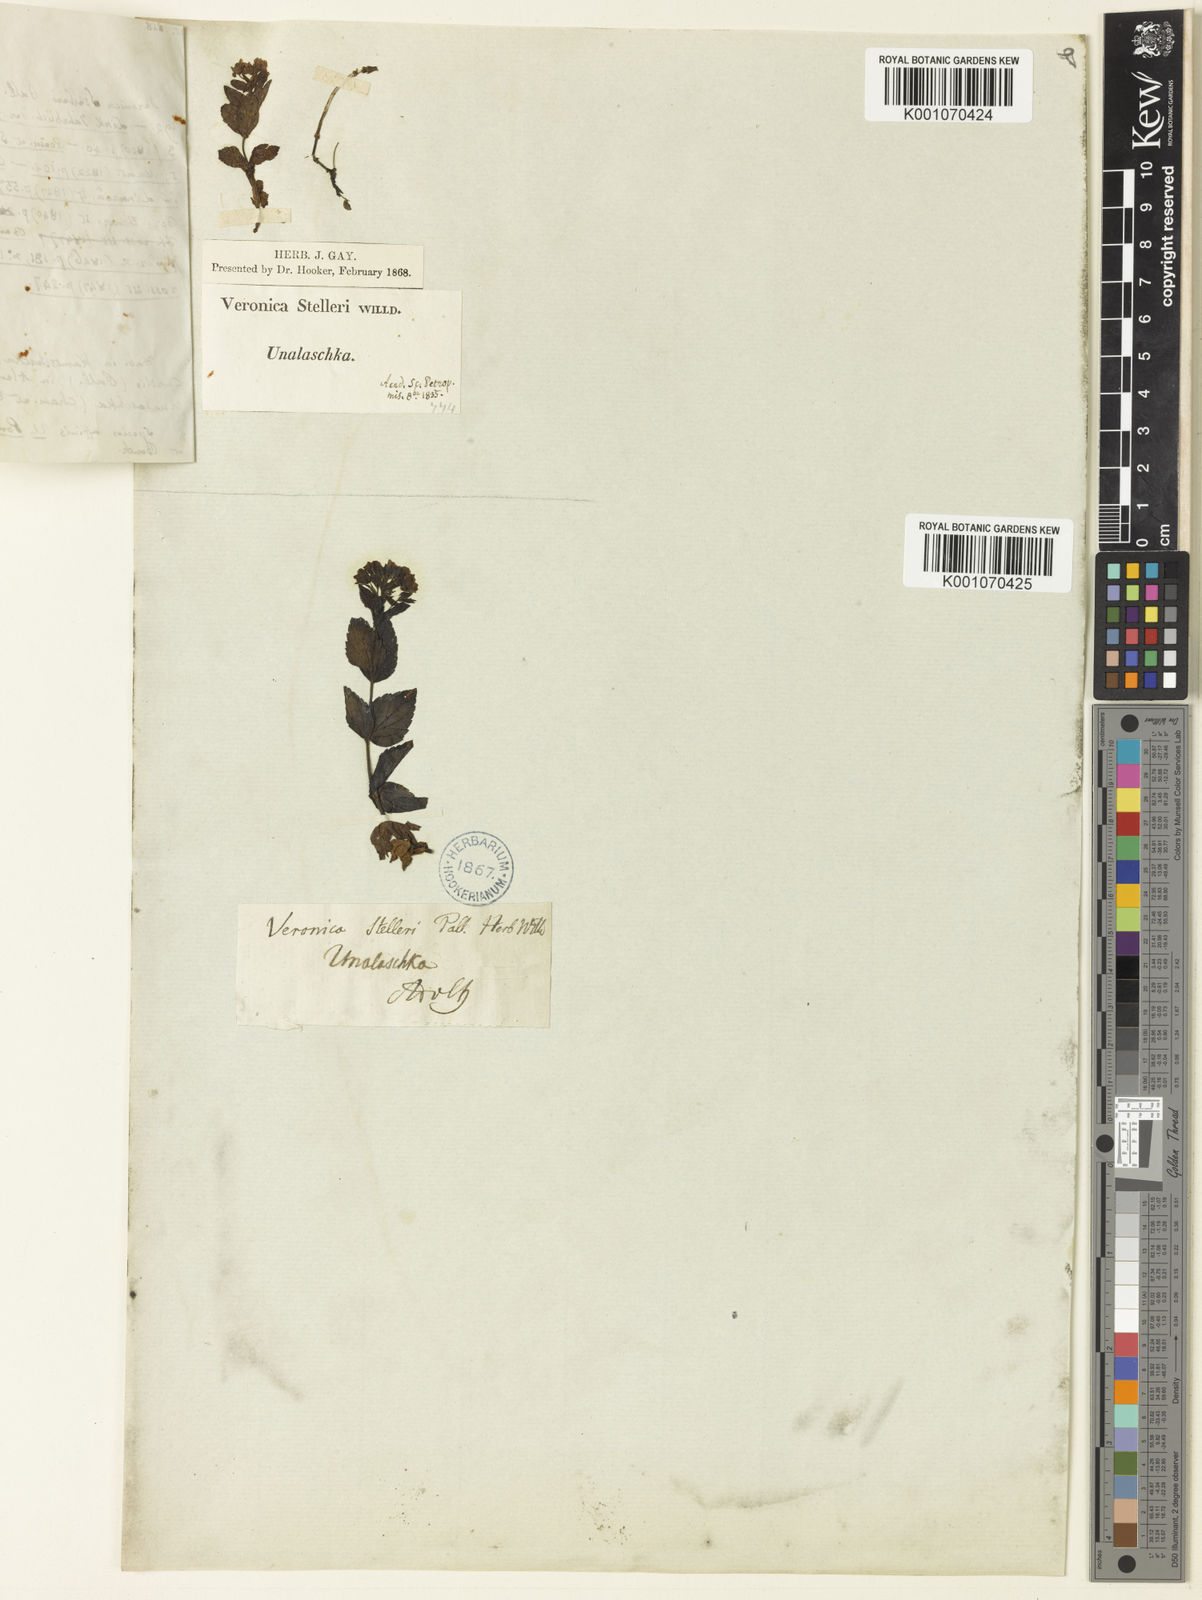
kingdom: Plantae
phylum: Tracheophyta
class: Magnoliopsida
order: Lamiales
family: Plantaginaceae
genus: Veronica
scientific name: Veronica stelleri
